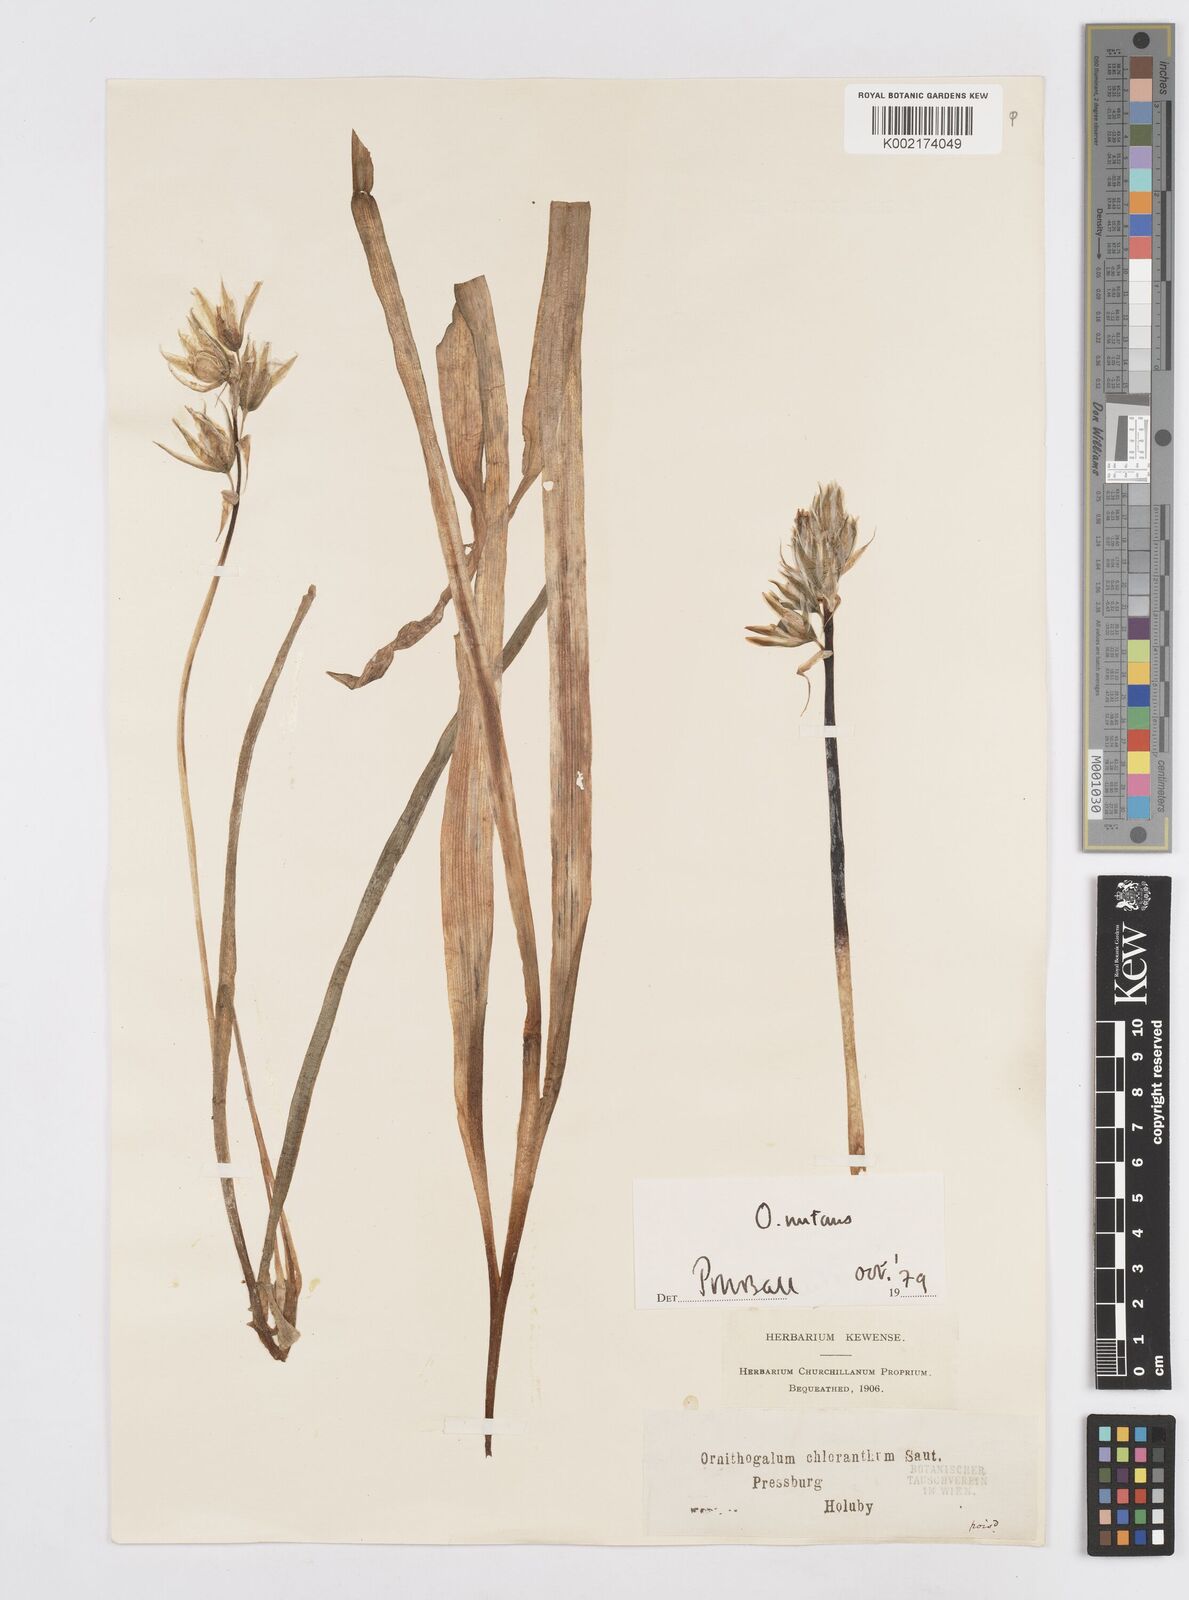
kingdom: Plantae
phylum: Tracheophyta
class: Liliopsida
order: Asparagales
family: Asparagaceae
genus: Ornithogalum
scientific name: Ornithogalum boucheanum
